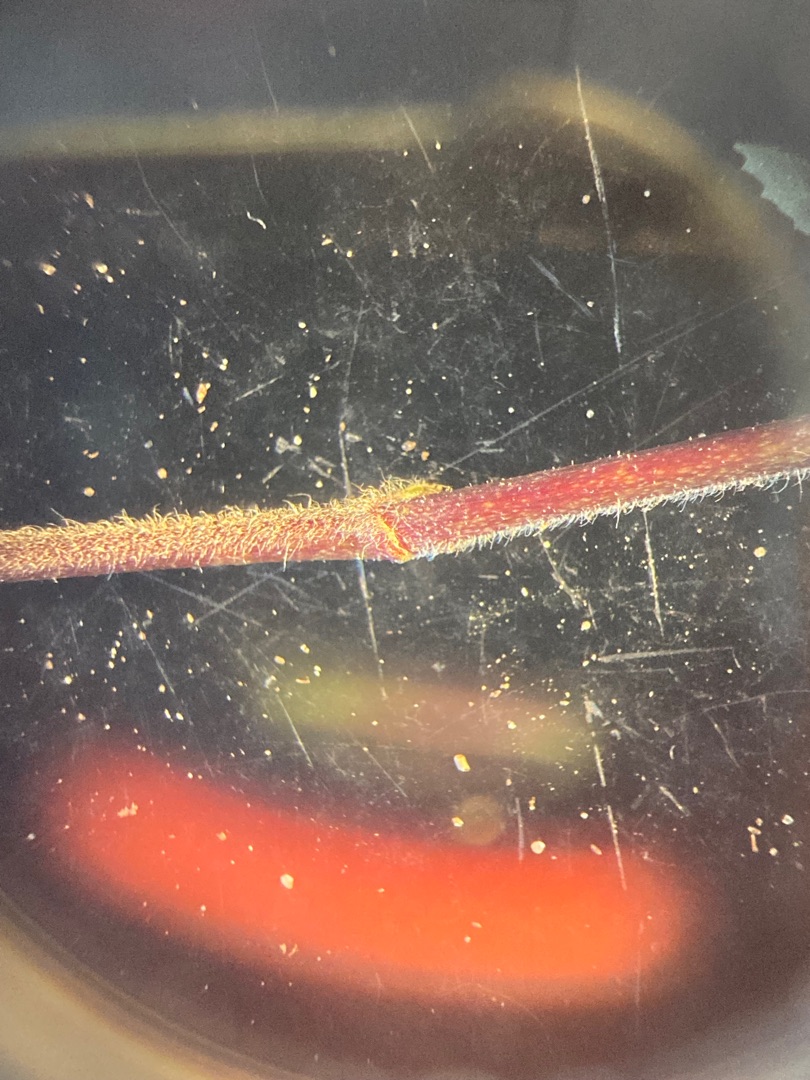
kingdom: Plantae
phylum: Tracheophyta
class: Magnoliopsida
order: Fabales
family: Fabaceae
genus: Ononis
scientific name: Ononis spinosa
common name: Strand-krageklo
